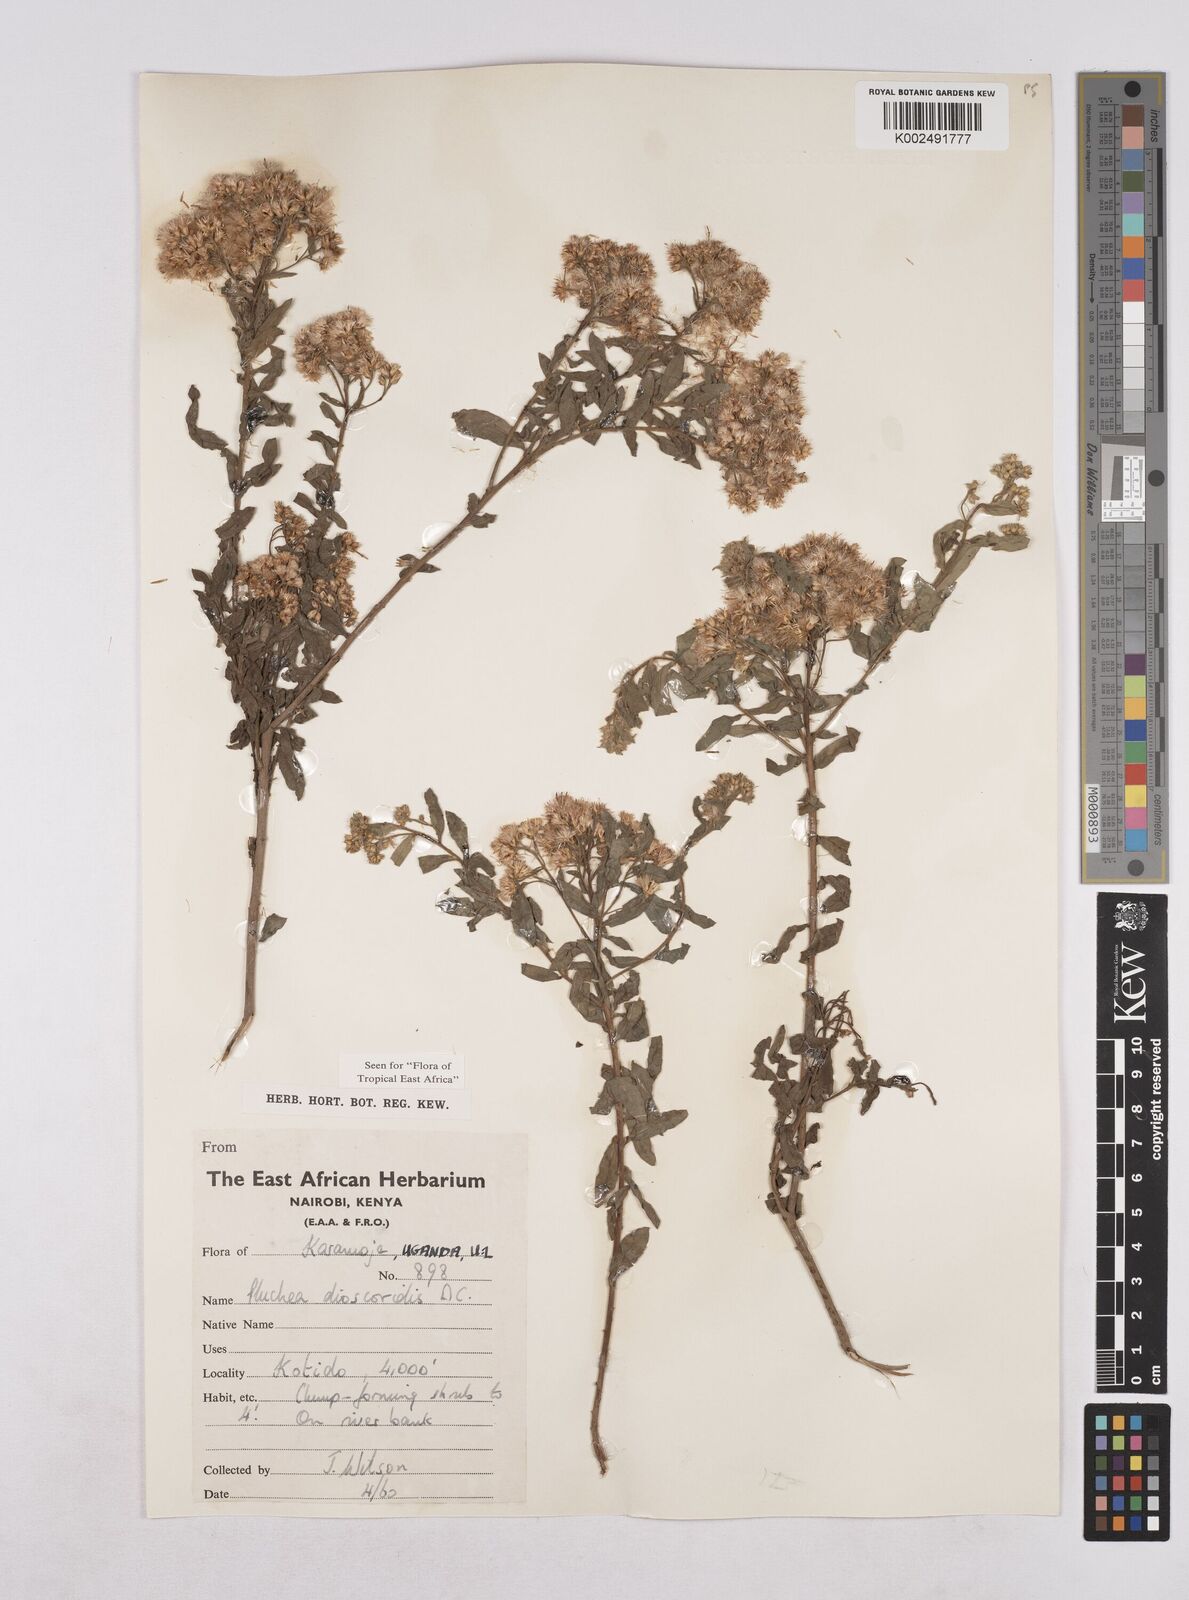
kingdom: Plantae
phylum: Tracheophyta
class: Magnoliopsida
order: Asterales
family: Asteraceae
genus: Pluchea
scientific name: Pluchea dioscoridis
